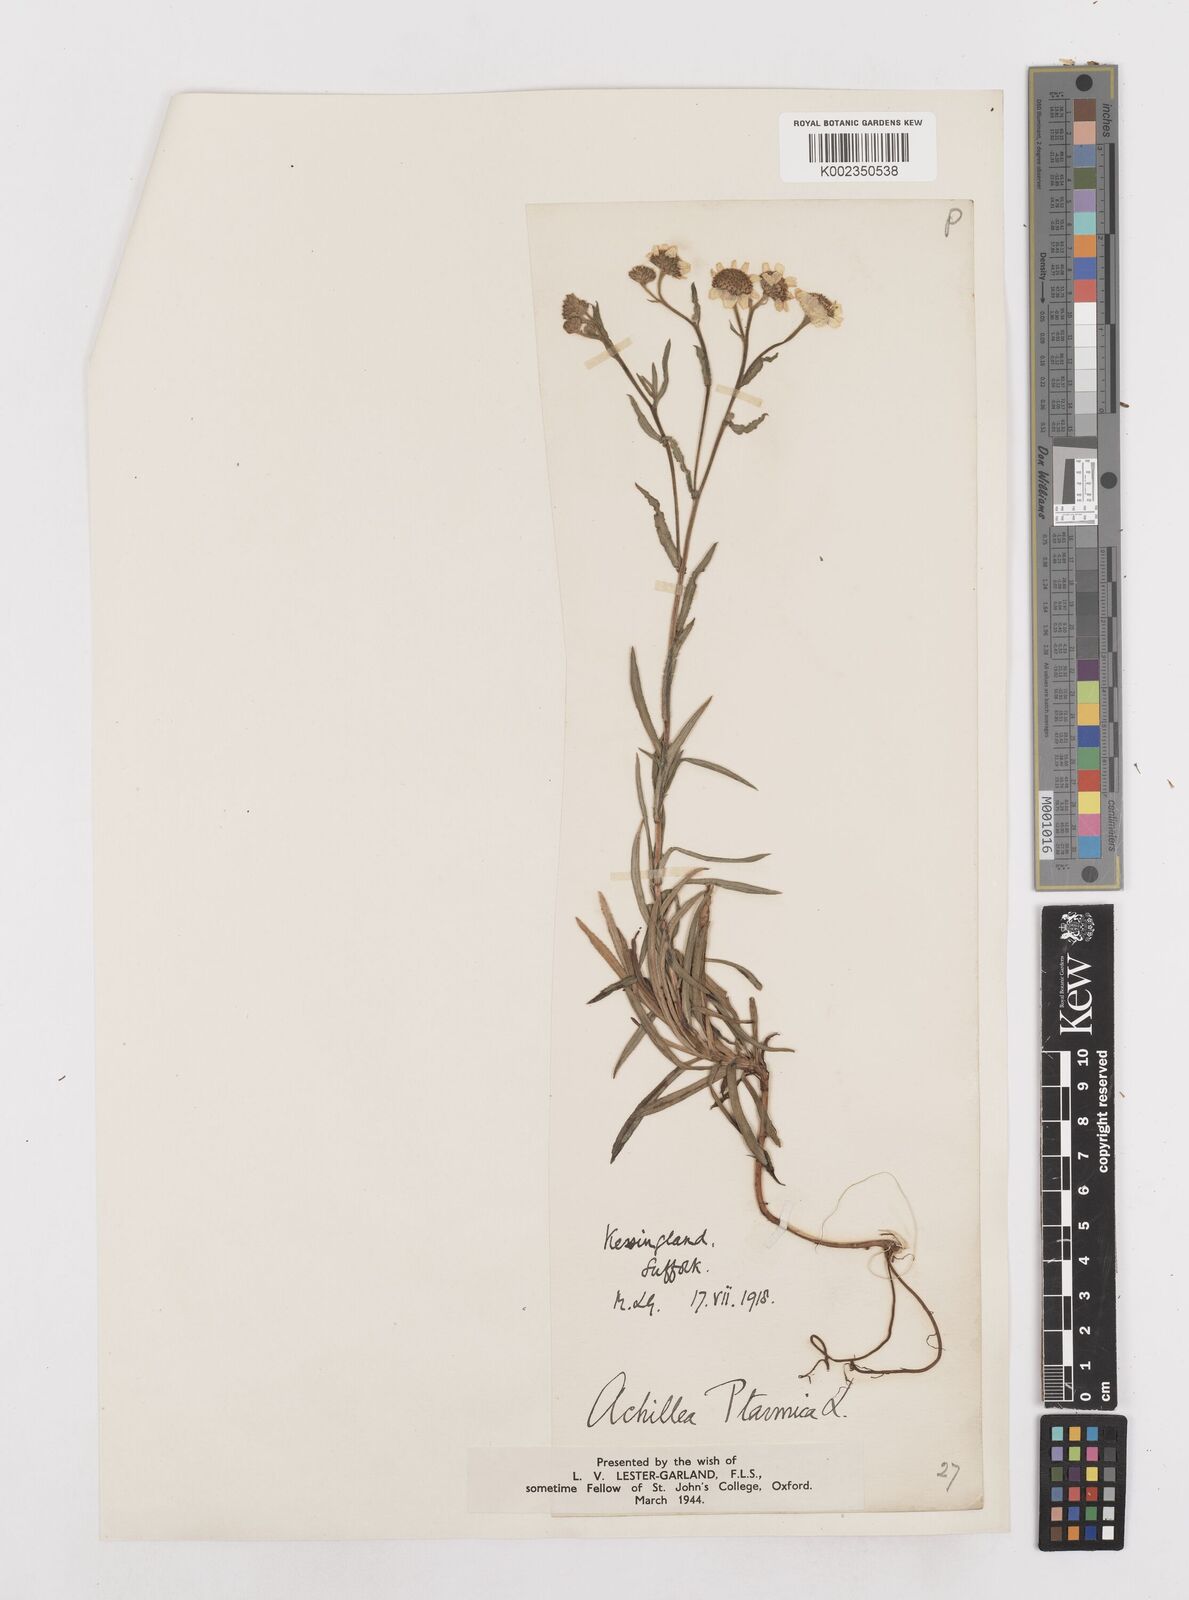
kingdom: Plantae
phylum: Tracheophyta
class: Magnoliopsida
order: Asterales
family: Asteraceae
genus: Achillea
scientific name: Achillea ptarmica
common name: Sneezeweed
